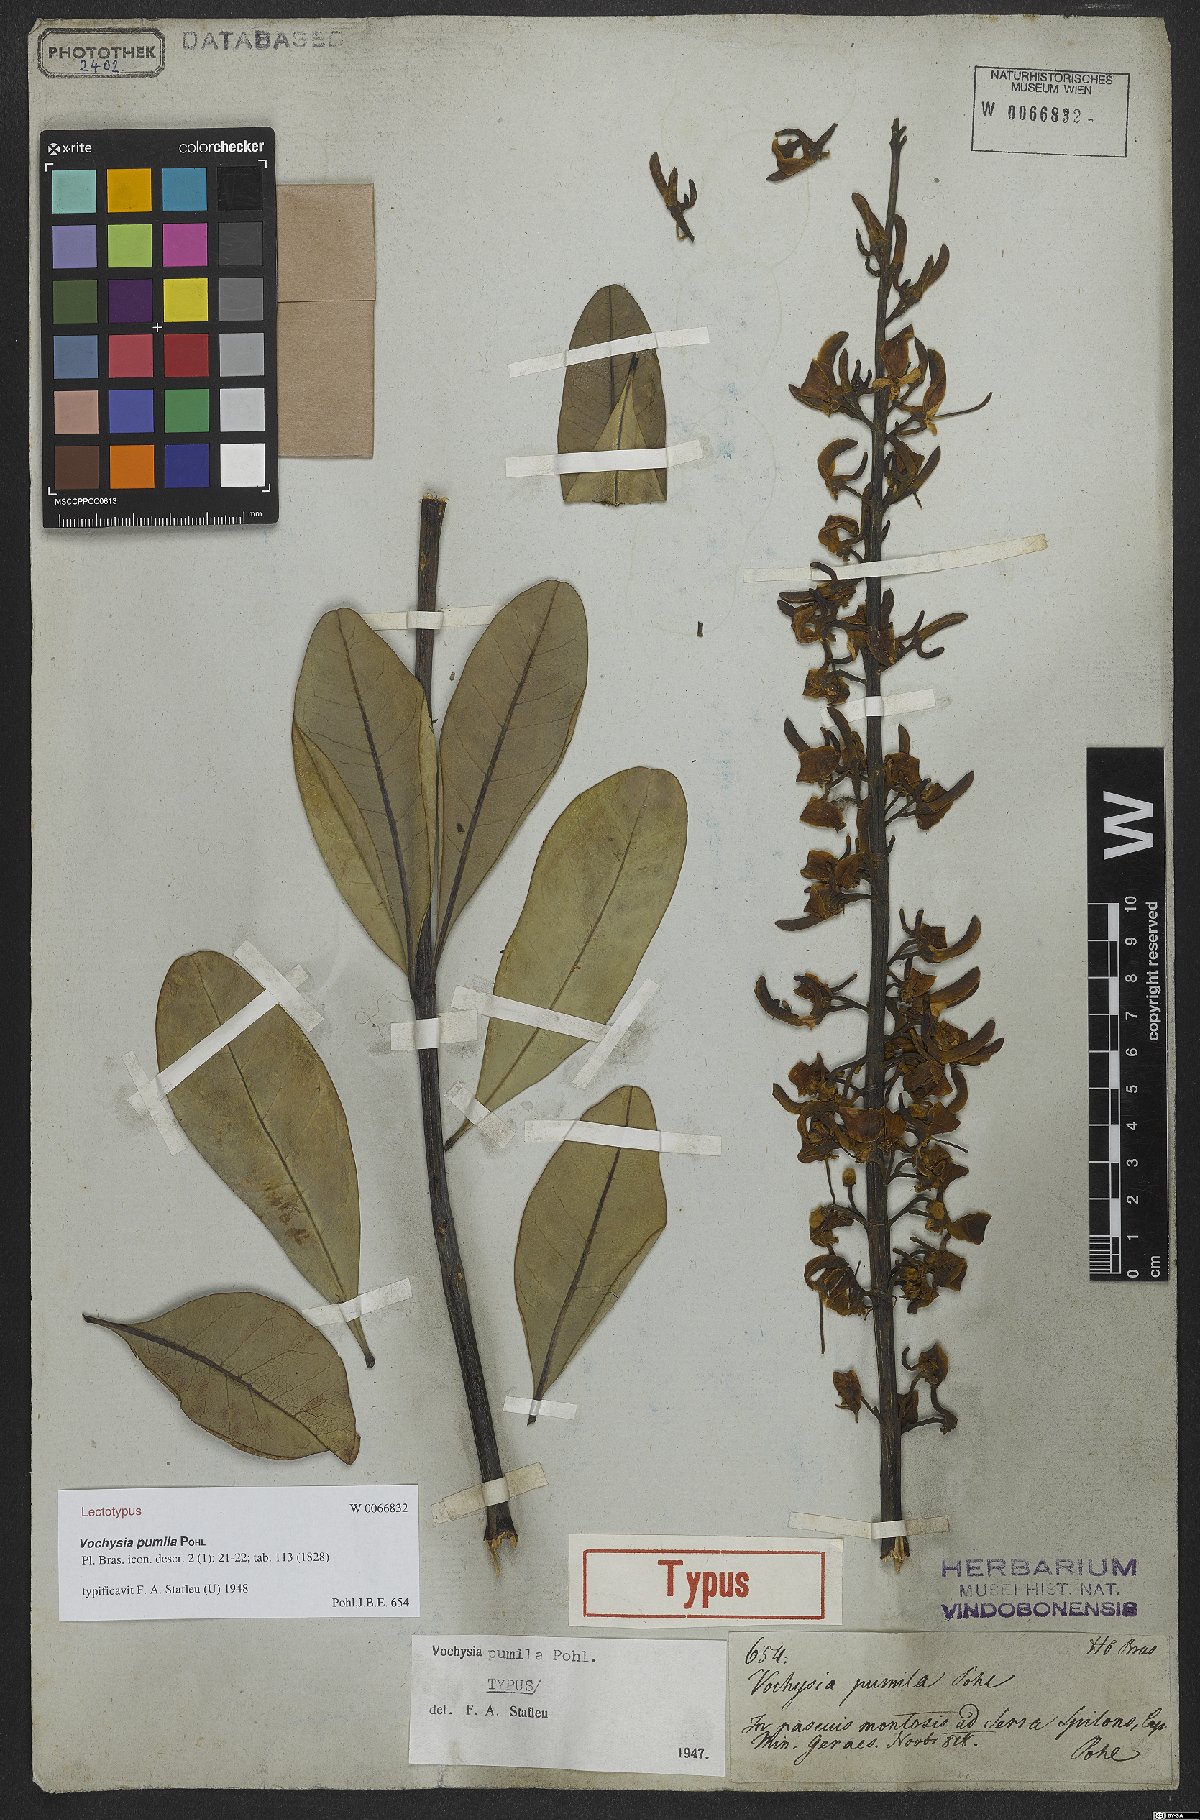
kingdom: Plantae
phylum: Tracheophyta
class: Magnoliopsida
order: Myrtales
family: Vochysiaceae
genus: Vochysia
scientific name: Vochysia pumila
